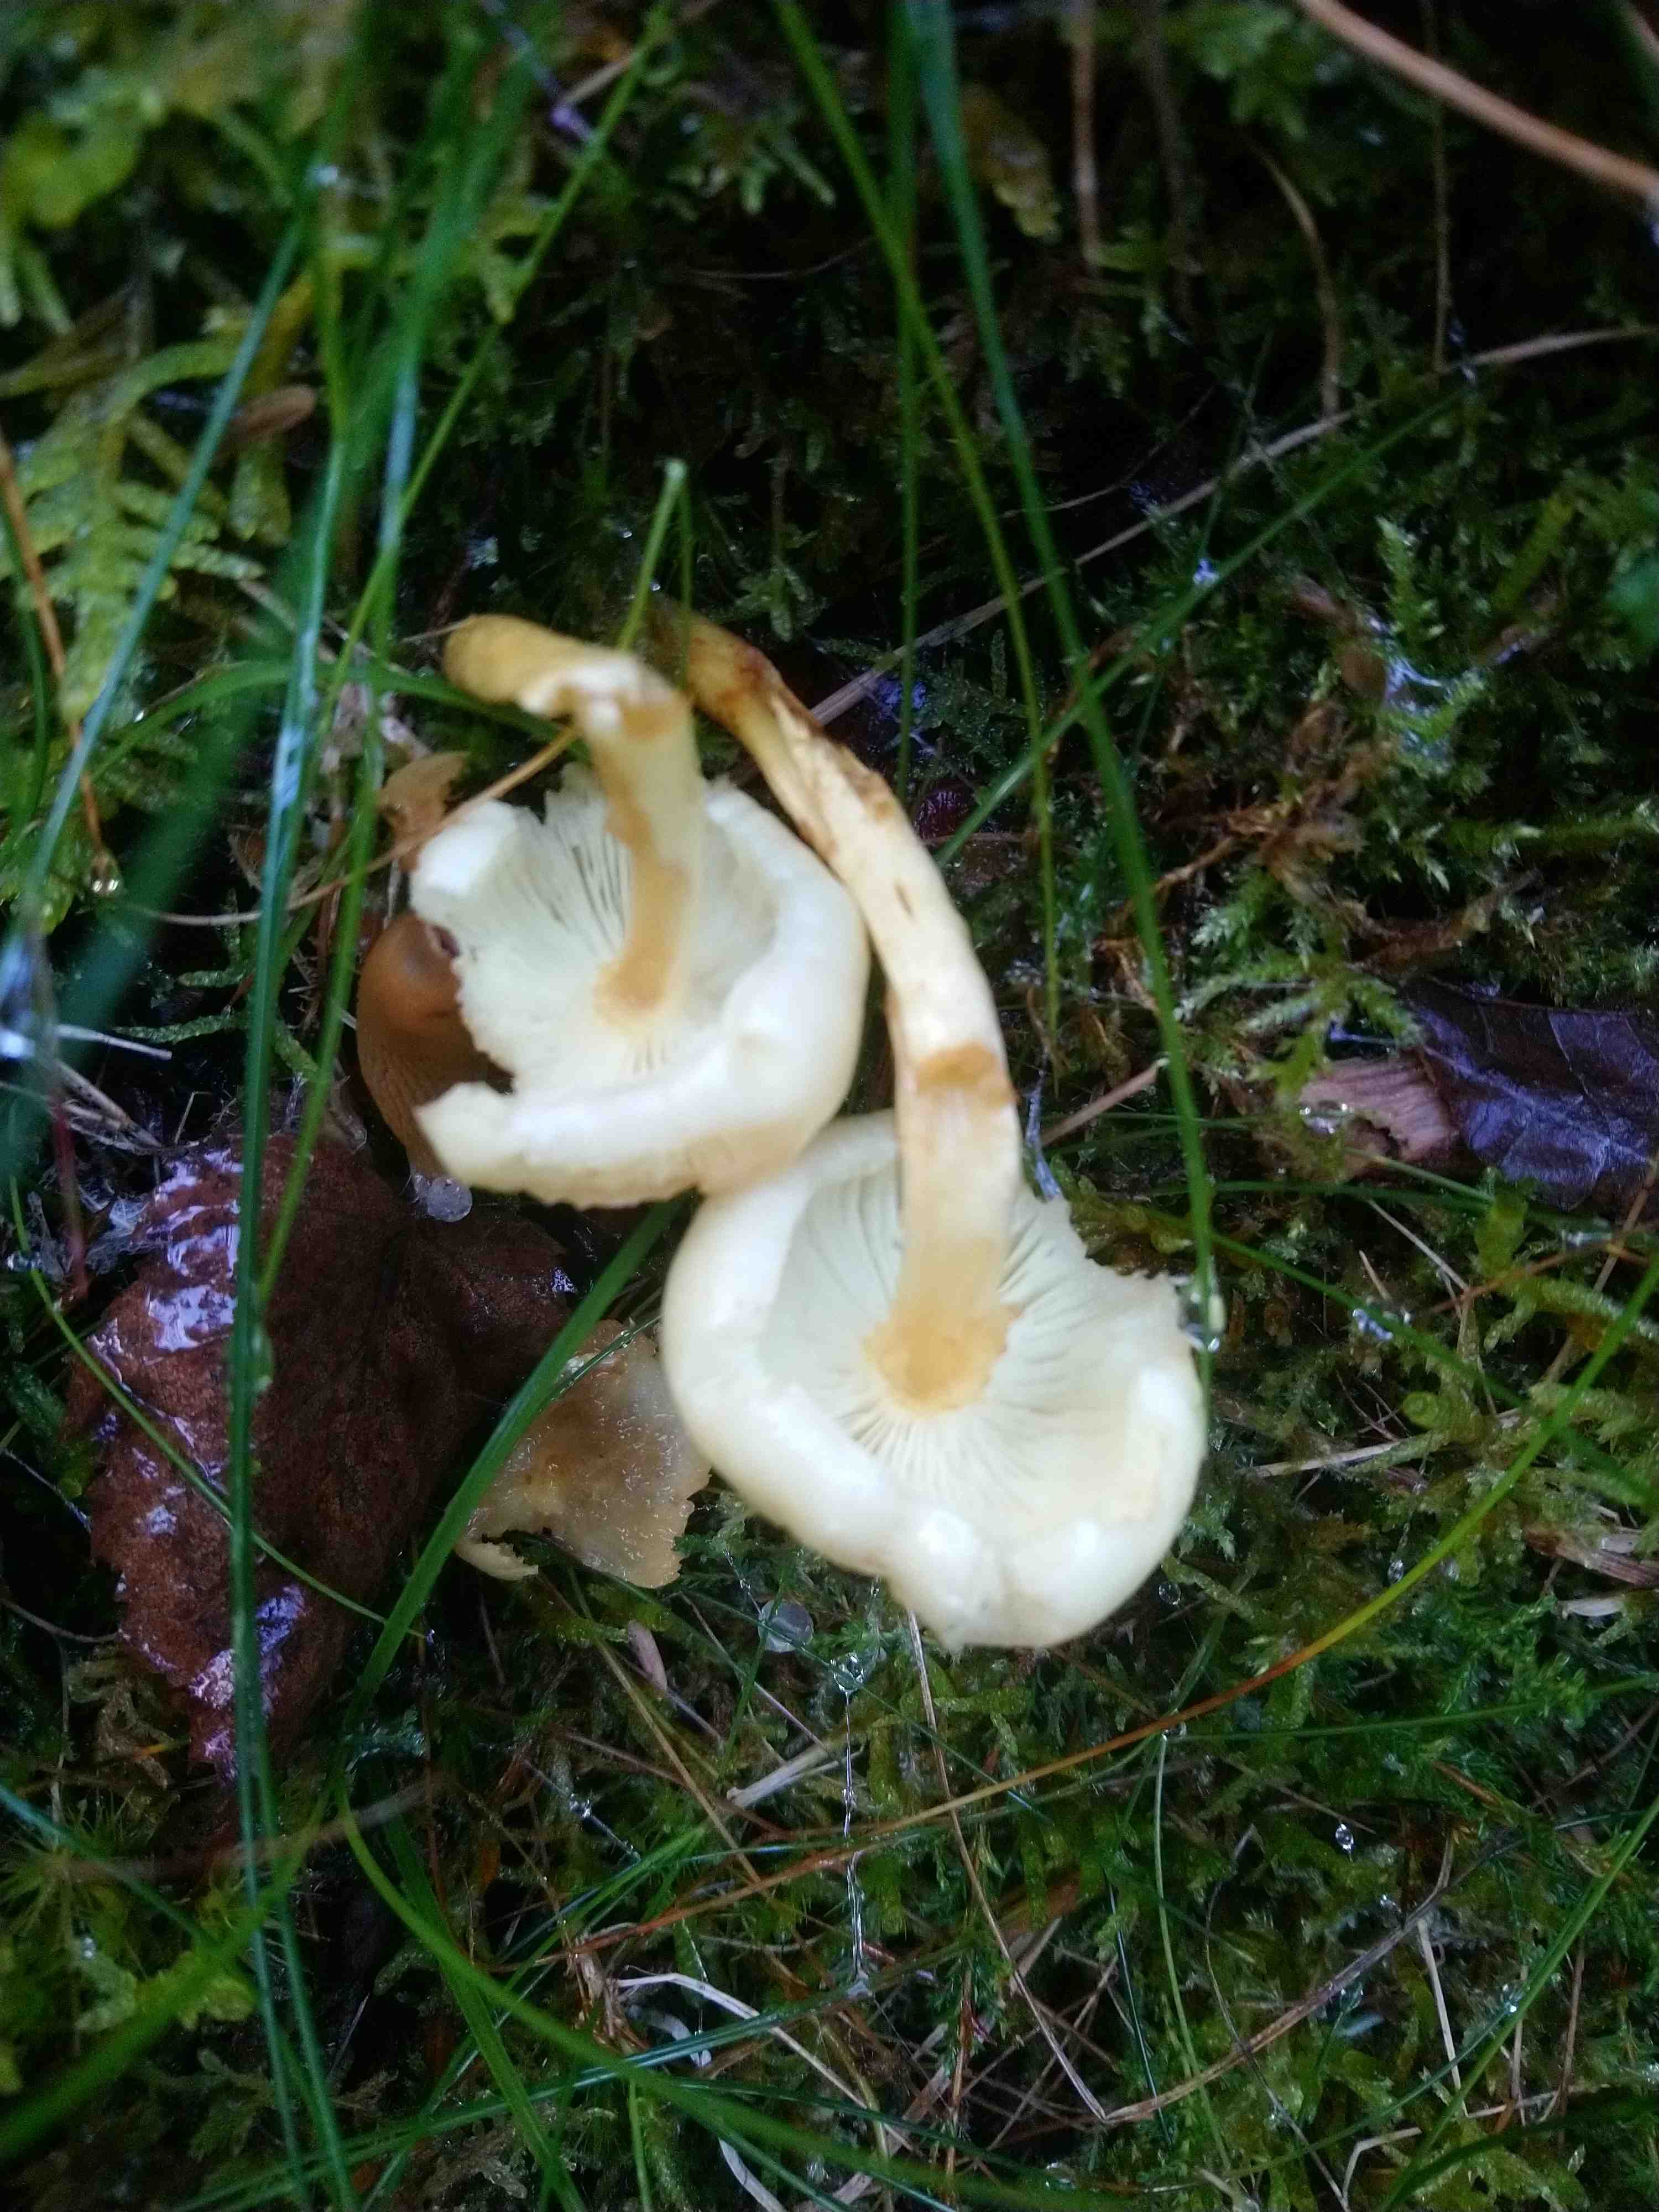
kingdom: Fungi
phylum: Basidiomycota
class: Agaricomycetes
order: Agaricales
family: Omphalotaceae
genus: Rhodocollybia
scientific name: Rhodocollybia maculata
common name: plettet fladhat
